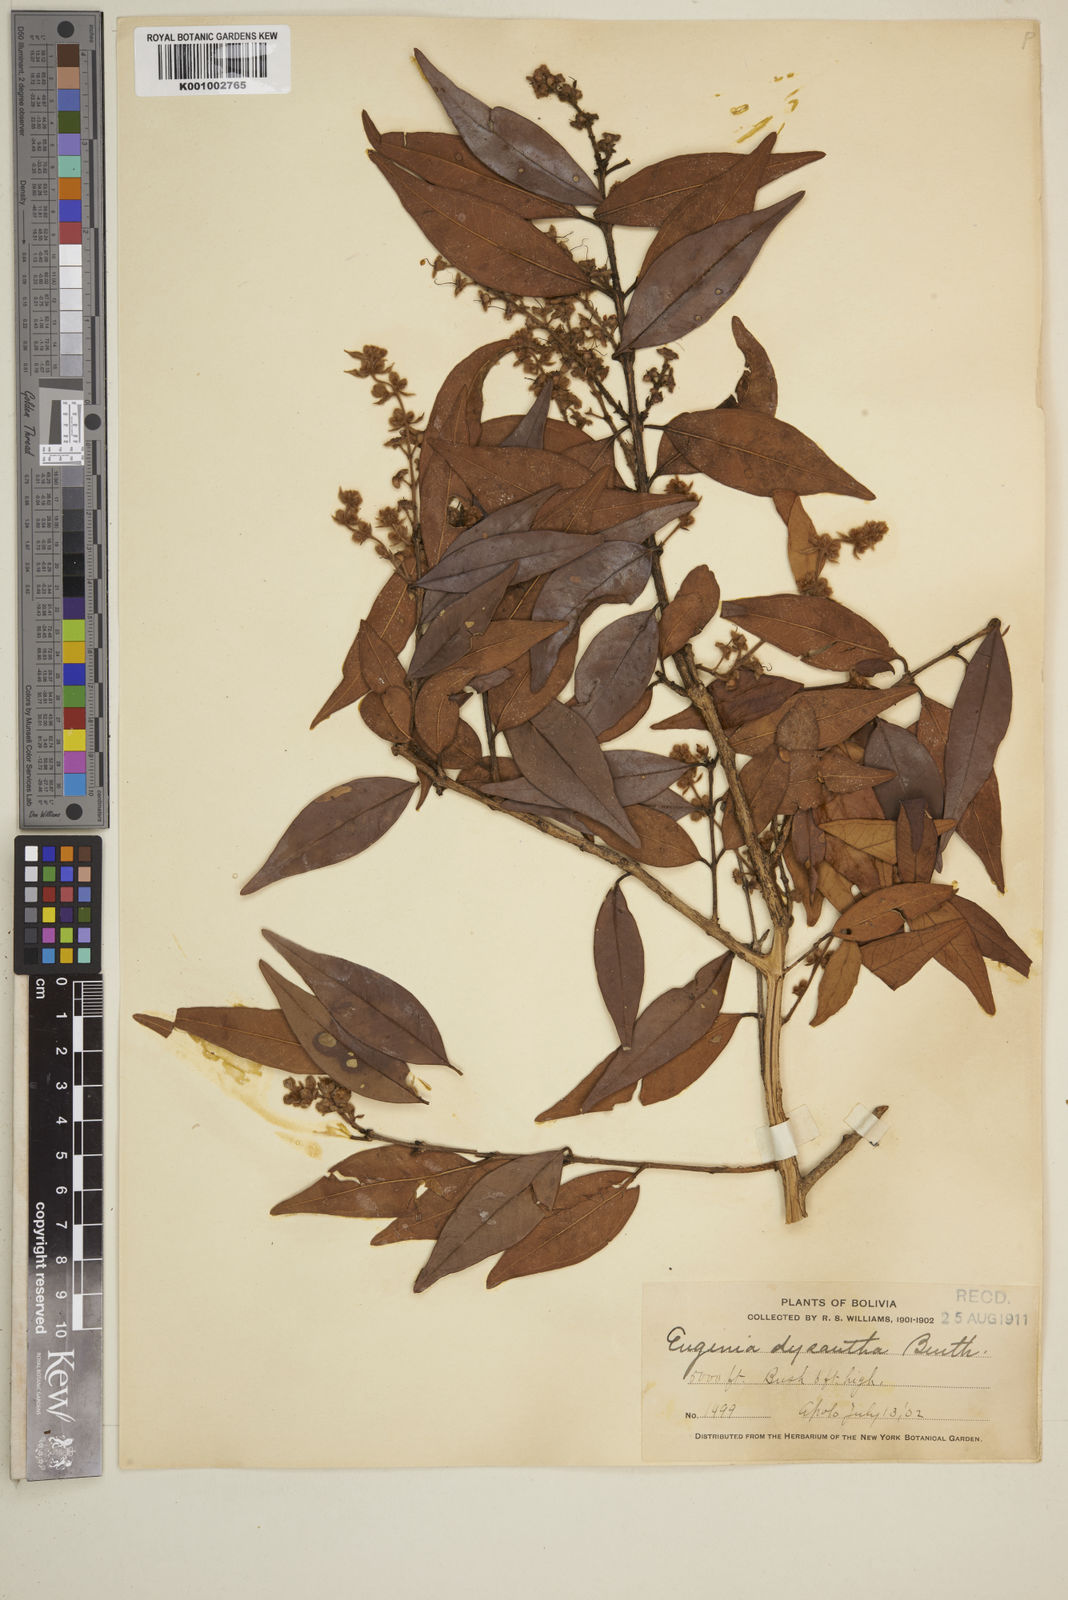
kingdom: Plantae
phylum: Tracheophyta
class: Magnoliopsida
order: Myrtales
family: Myrtaceae
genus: Eugenia
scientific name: Eugenia biflora
